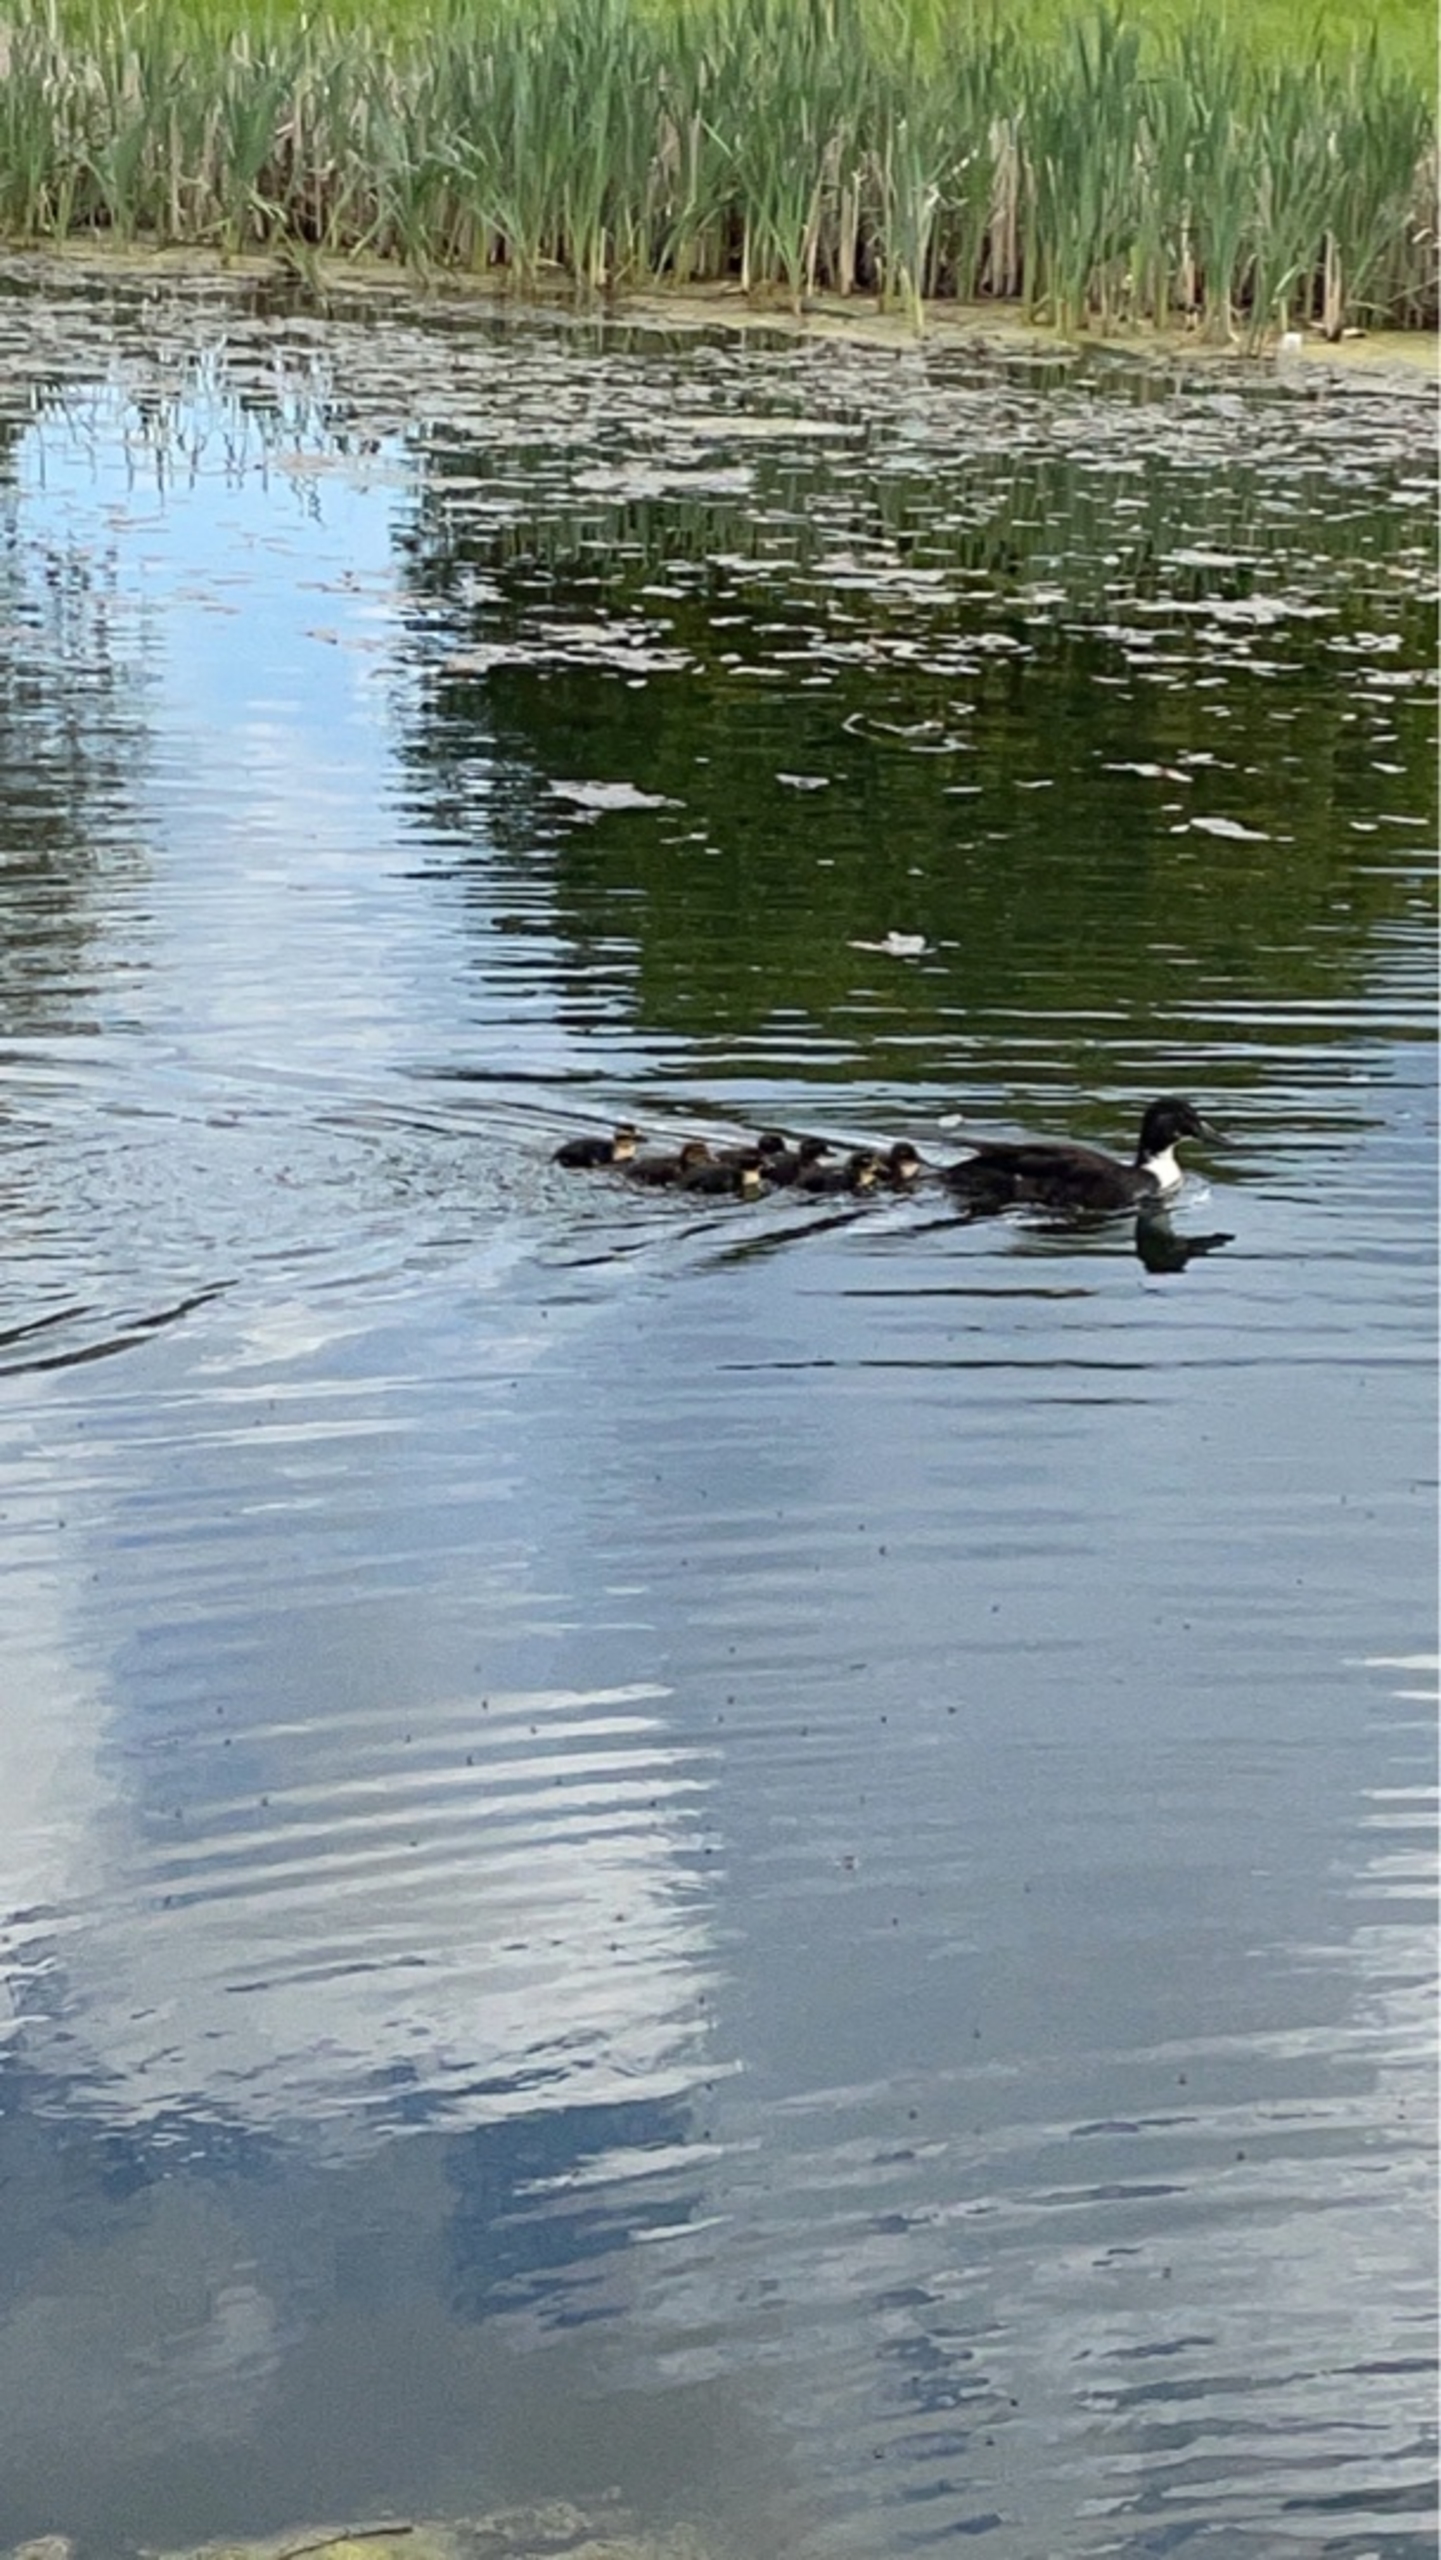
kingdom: Animalia
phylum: Chordata
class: Aves
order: Anseriformes
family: Anatidae
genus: Anas
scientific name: Anas platyrhynchos
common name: Gråand
